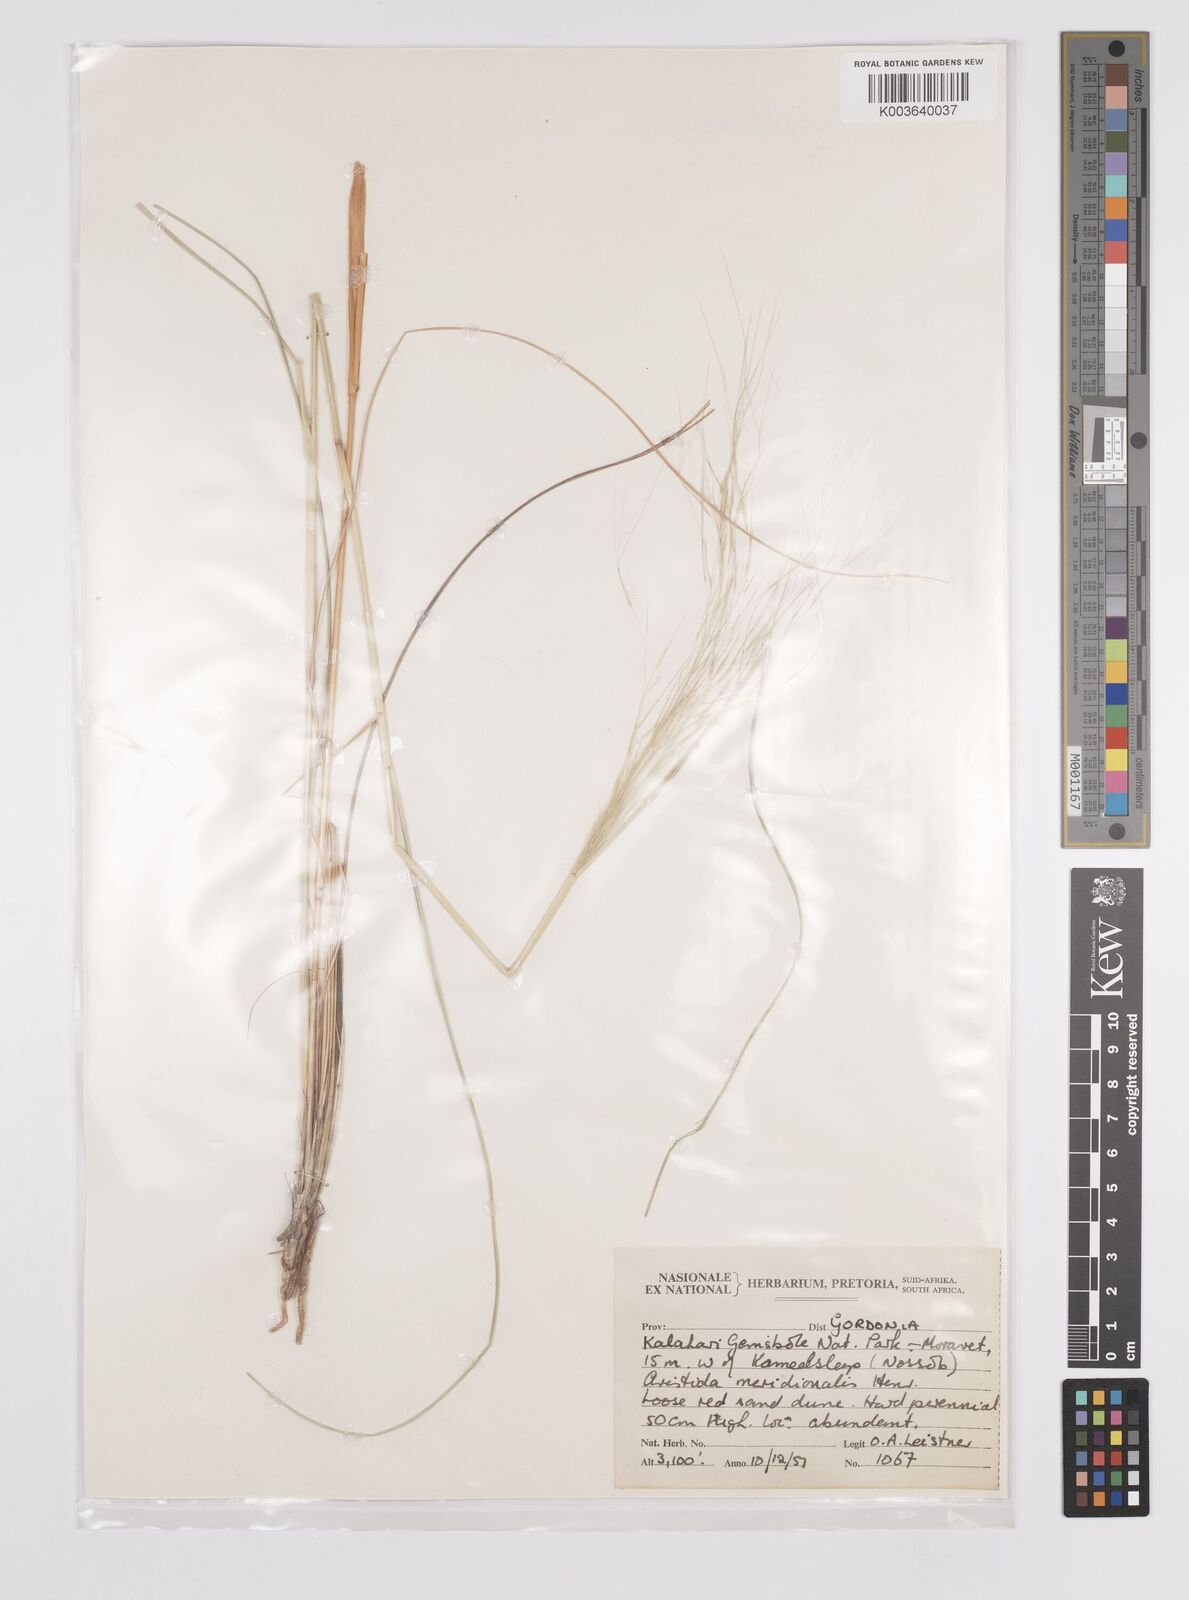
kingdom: Plantae
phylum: Tracheophyta
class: Liliopsida
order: Poales
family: Poaceae
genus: Aristida
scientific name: Aristida meridionalis
